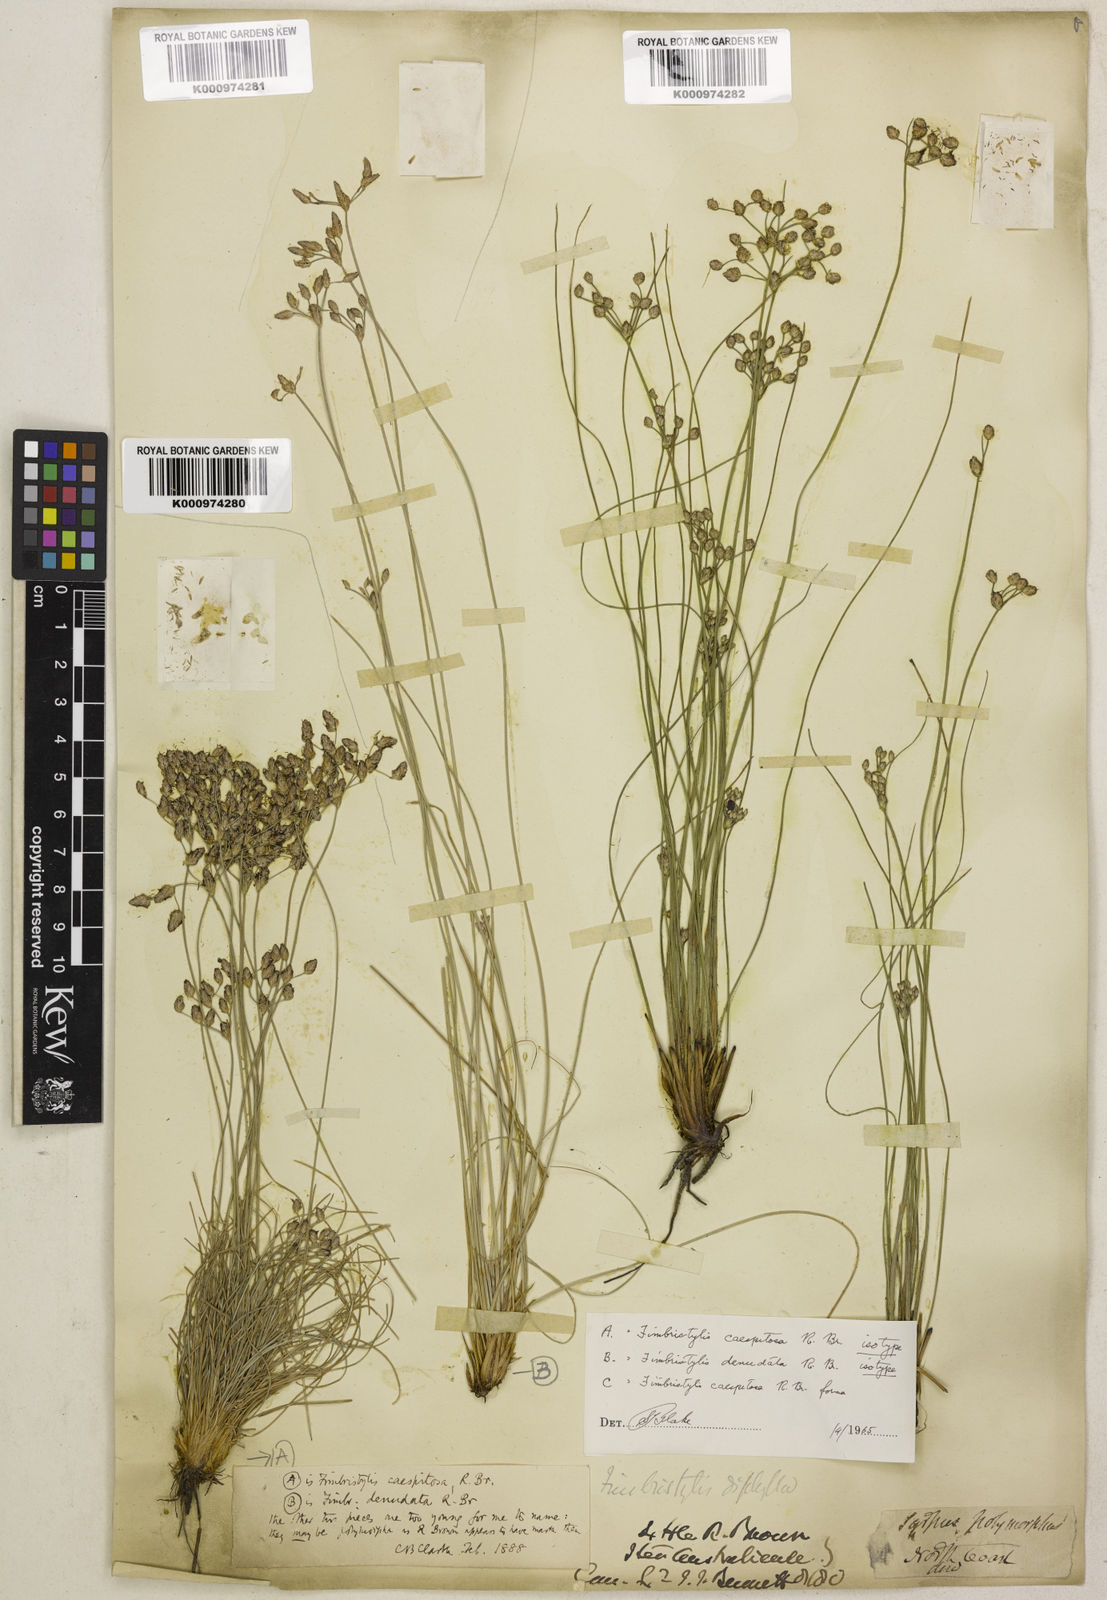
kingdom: Plantae
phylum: Tracheophyta
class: Liliopsida
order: Poales
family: Cyperaceae
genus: Fimbristylis
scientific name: Fimbristylis caespitosa
